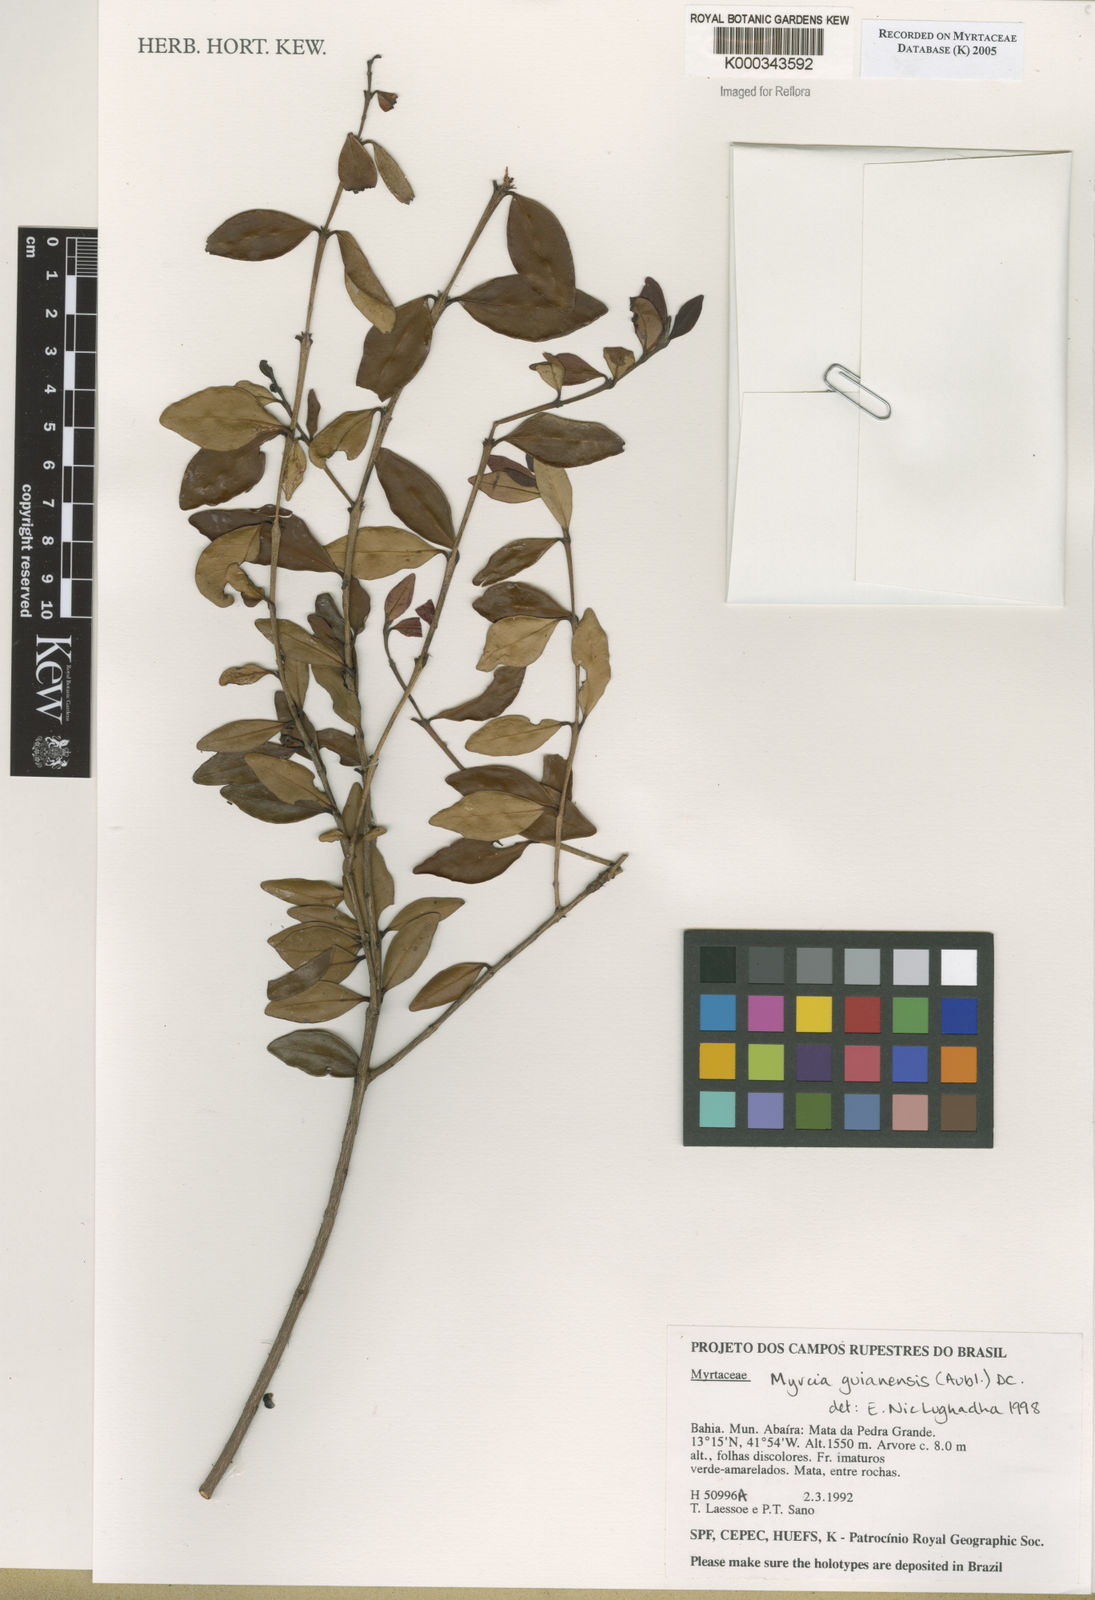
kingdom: Plantae
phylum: Tracheophyta
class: Magnoliopsida
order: Myrtales
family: Myrtaceae
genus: Myrcia
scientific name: Myrcia guianensis
